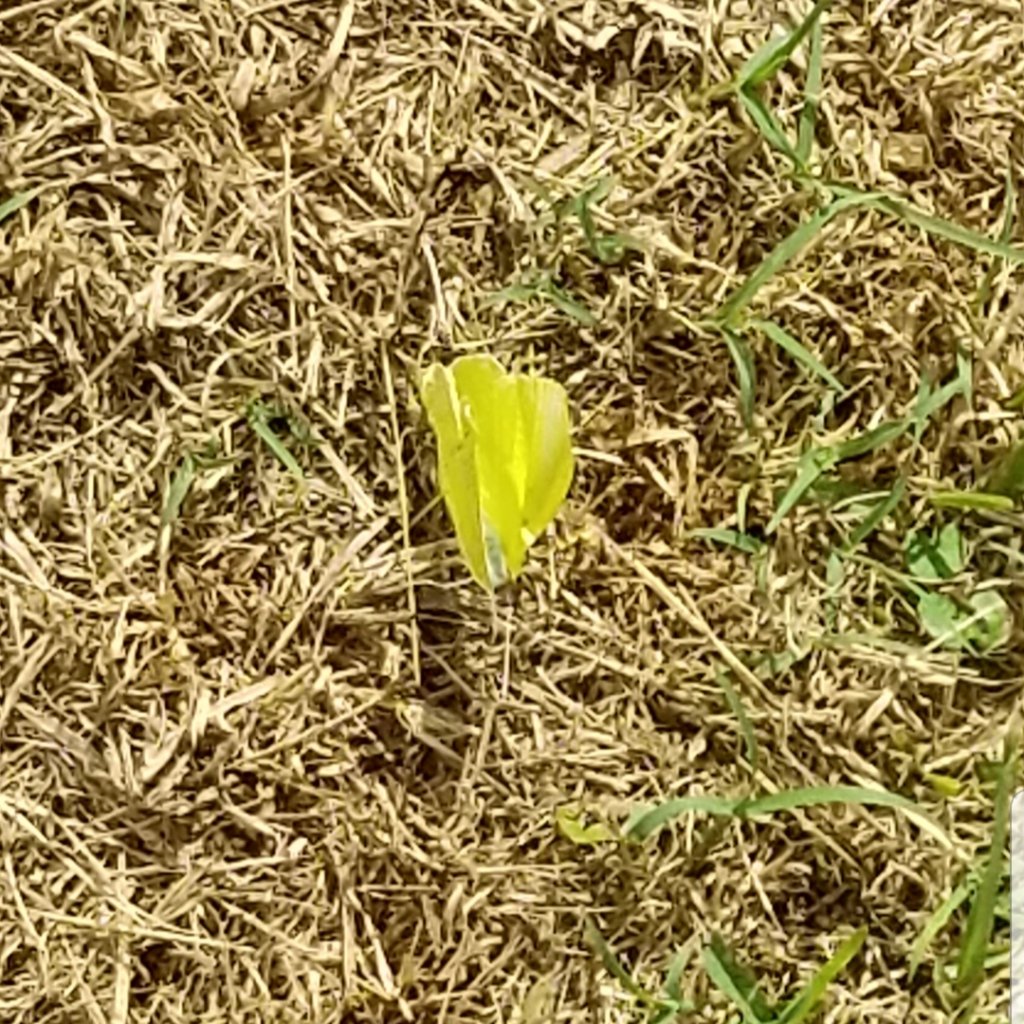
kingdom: Animalia
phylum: Arthropoda
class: Insecta
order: Lepidoptera
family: Pieridae
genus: Phoebis
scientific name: Phoebis sennae
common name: Cloudless Sulphur
